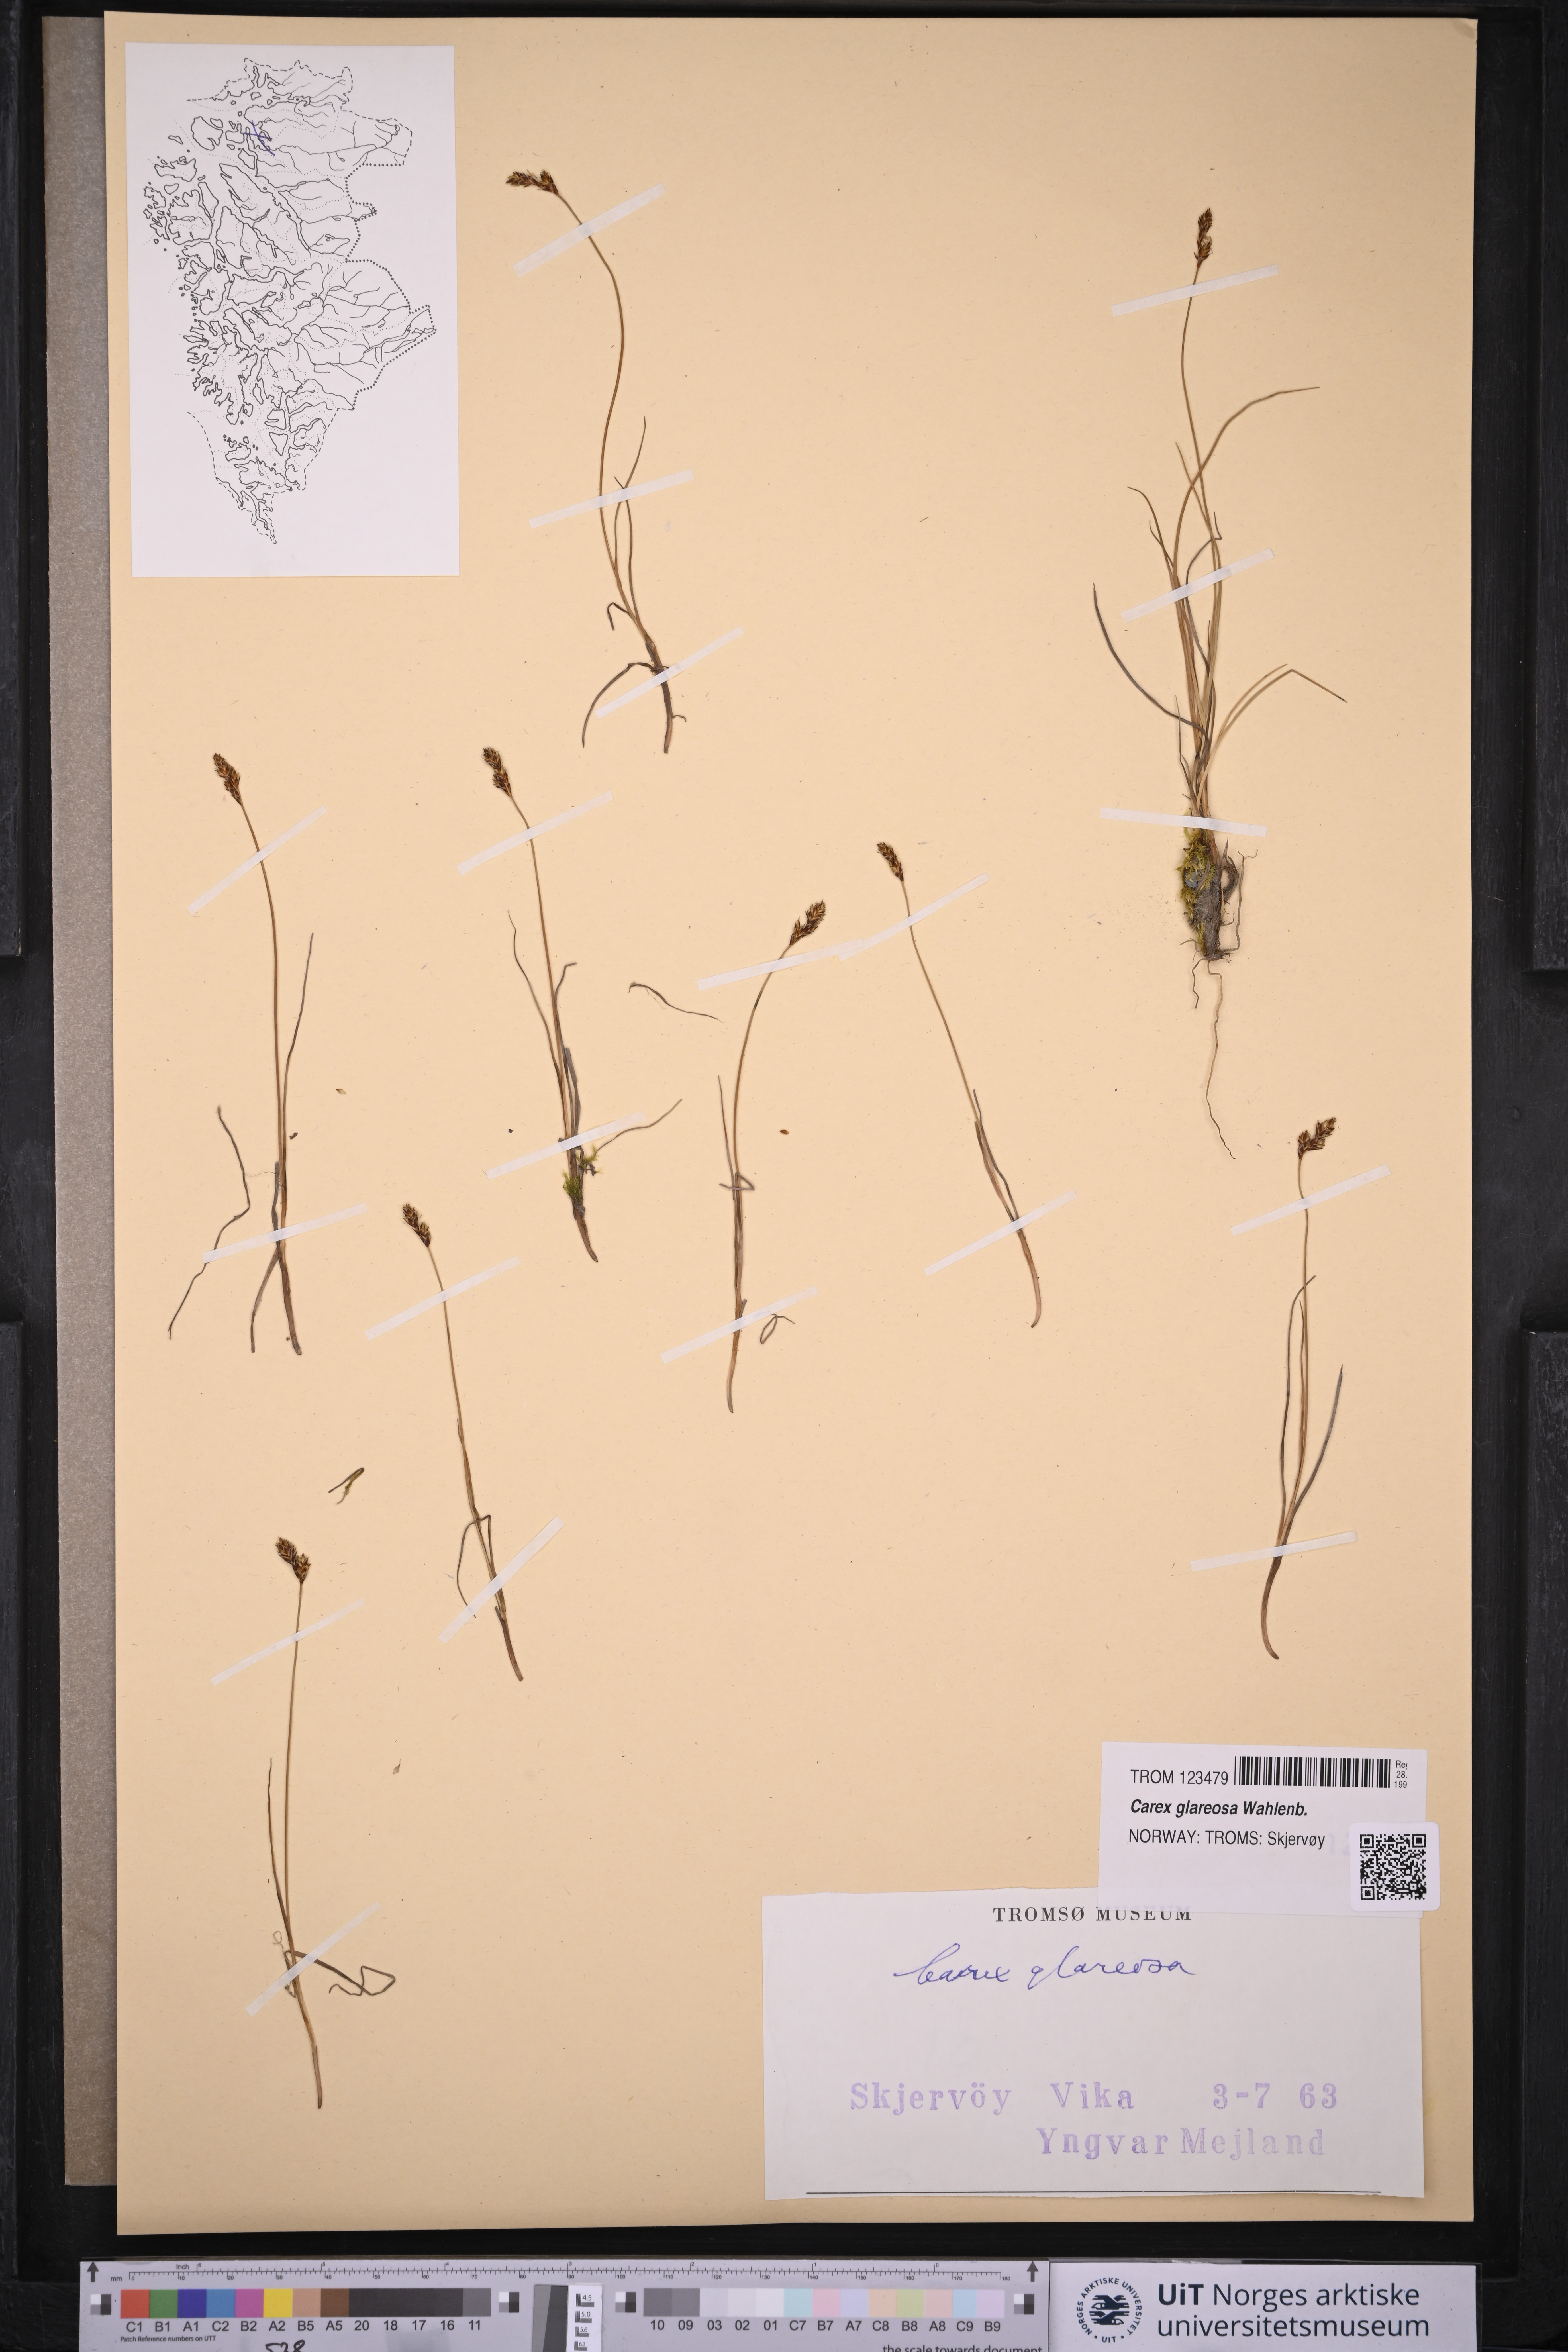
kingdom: Plantae
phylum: Tracheophyta
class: Liliopsida
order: Poales
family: Cyperaceae
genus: Carex
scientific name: Carex glareosa
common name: Clustered sedge
